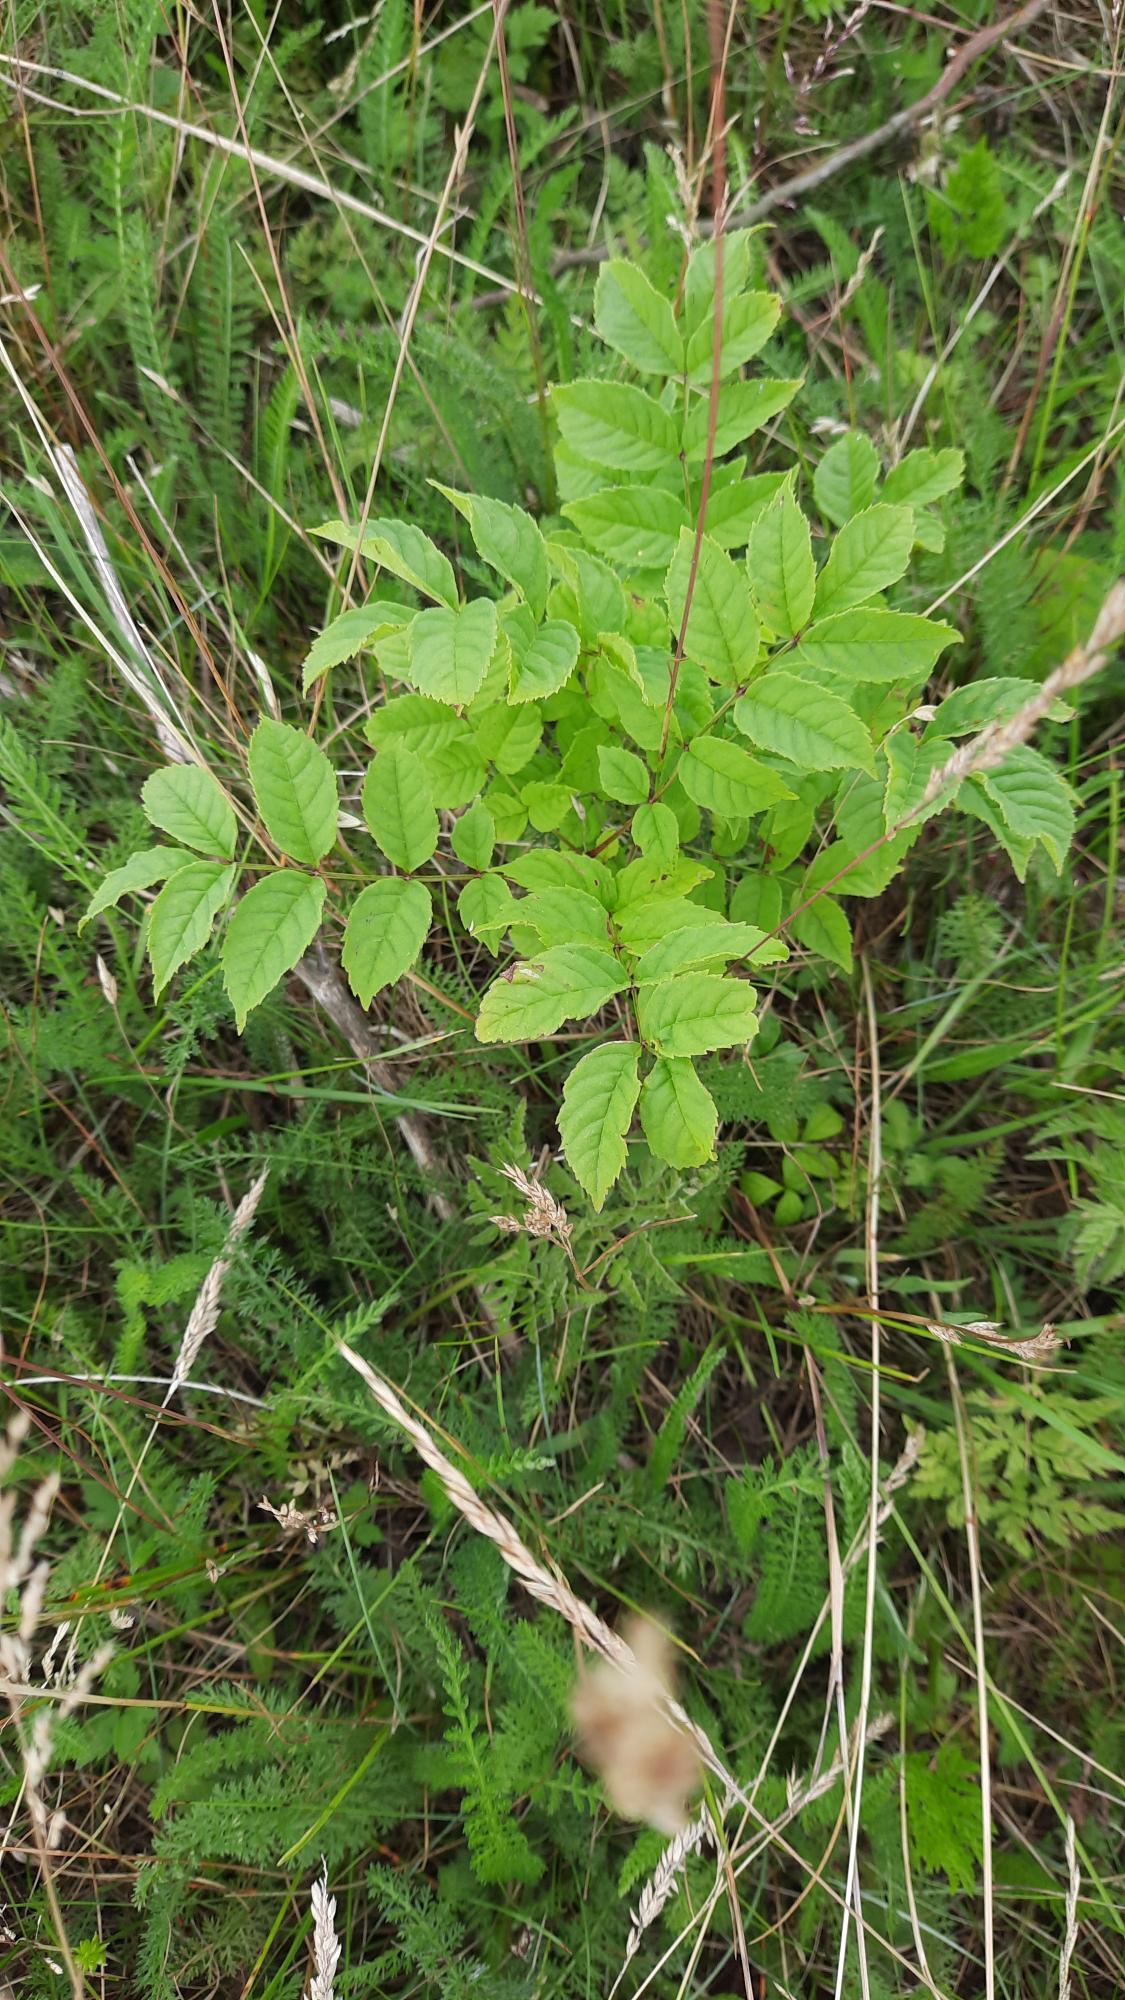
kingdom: Plantae
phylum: Tracheophyta
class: Magnoliopsida
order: Lamiales
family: Oleaceae
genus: Fraxinus
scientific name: Fraxinus excelsior
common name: Ask
